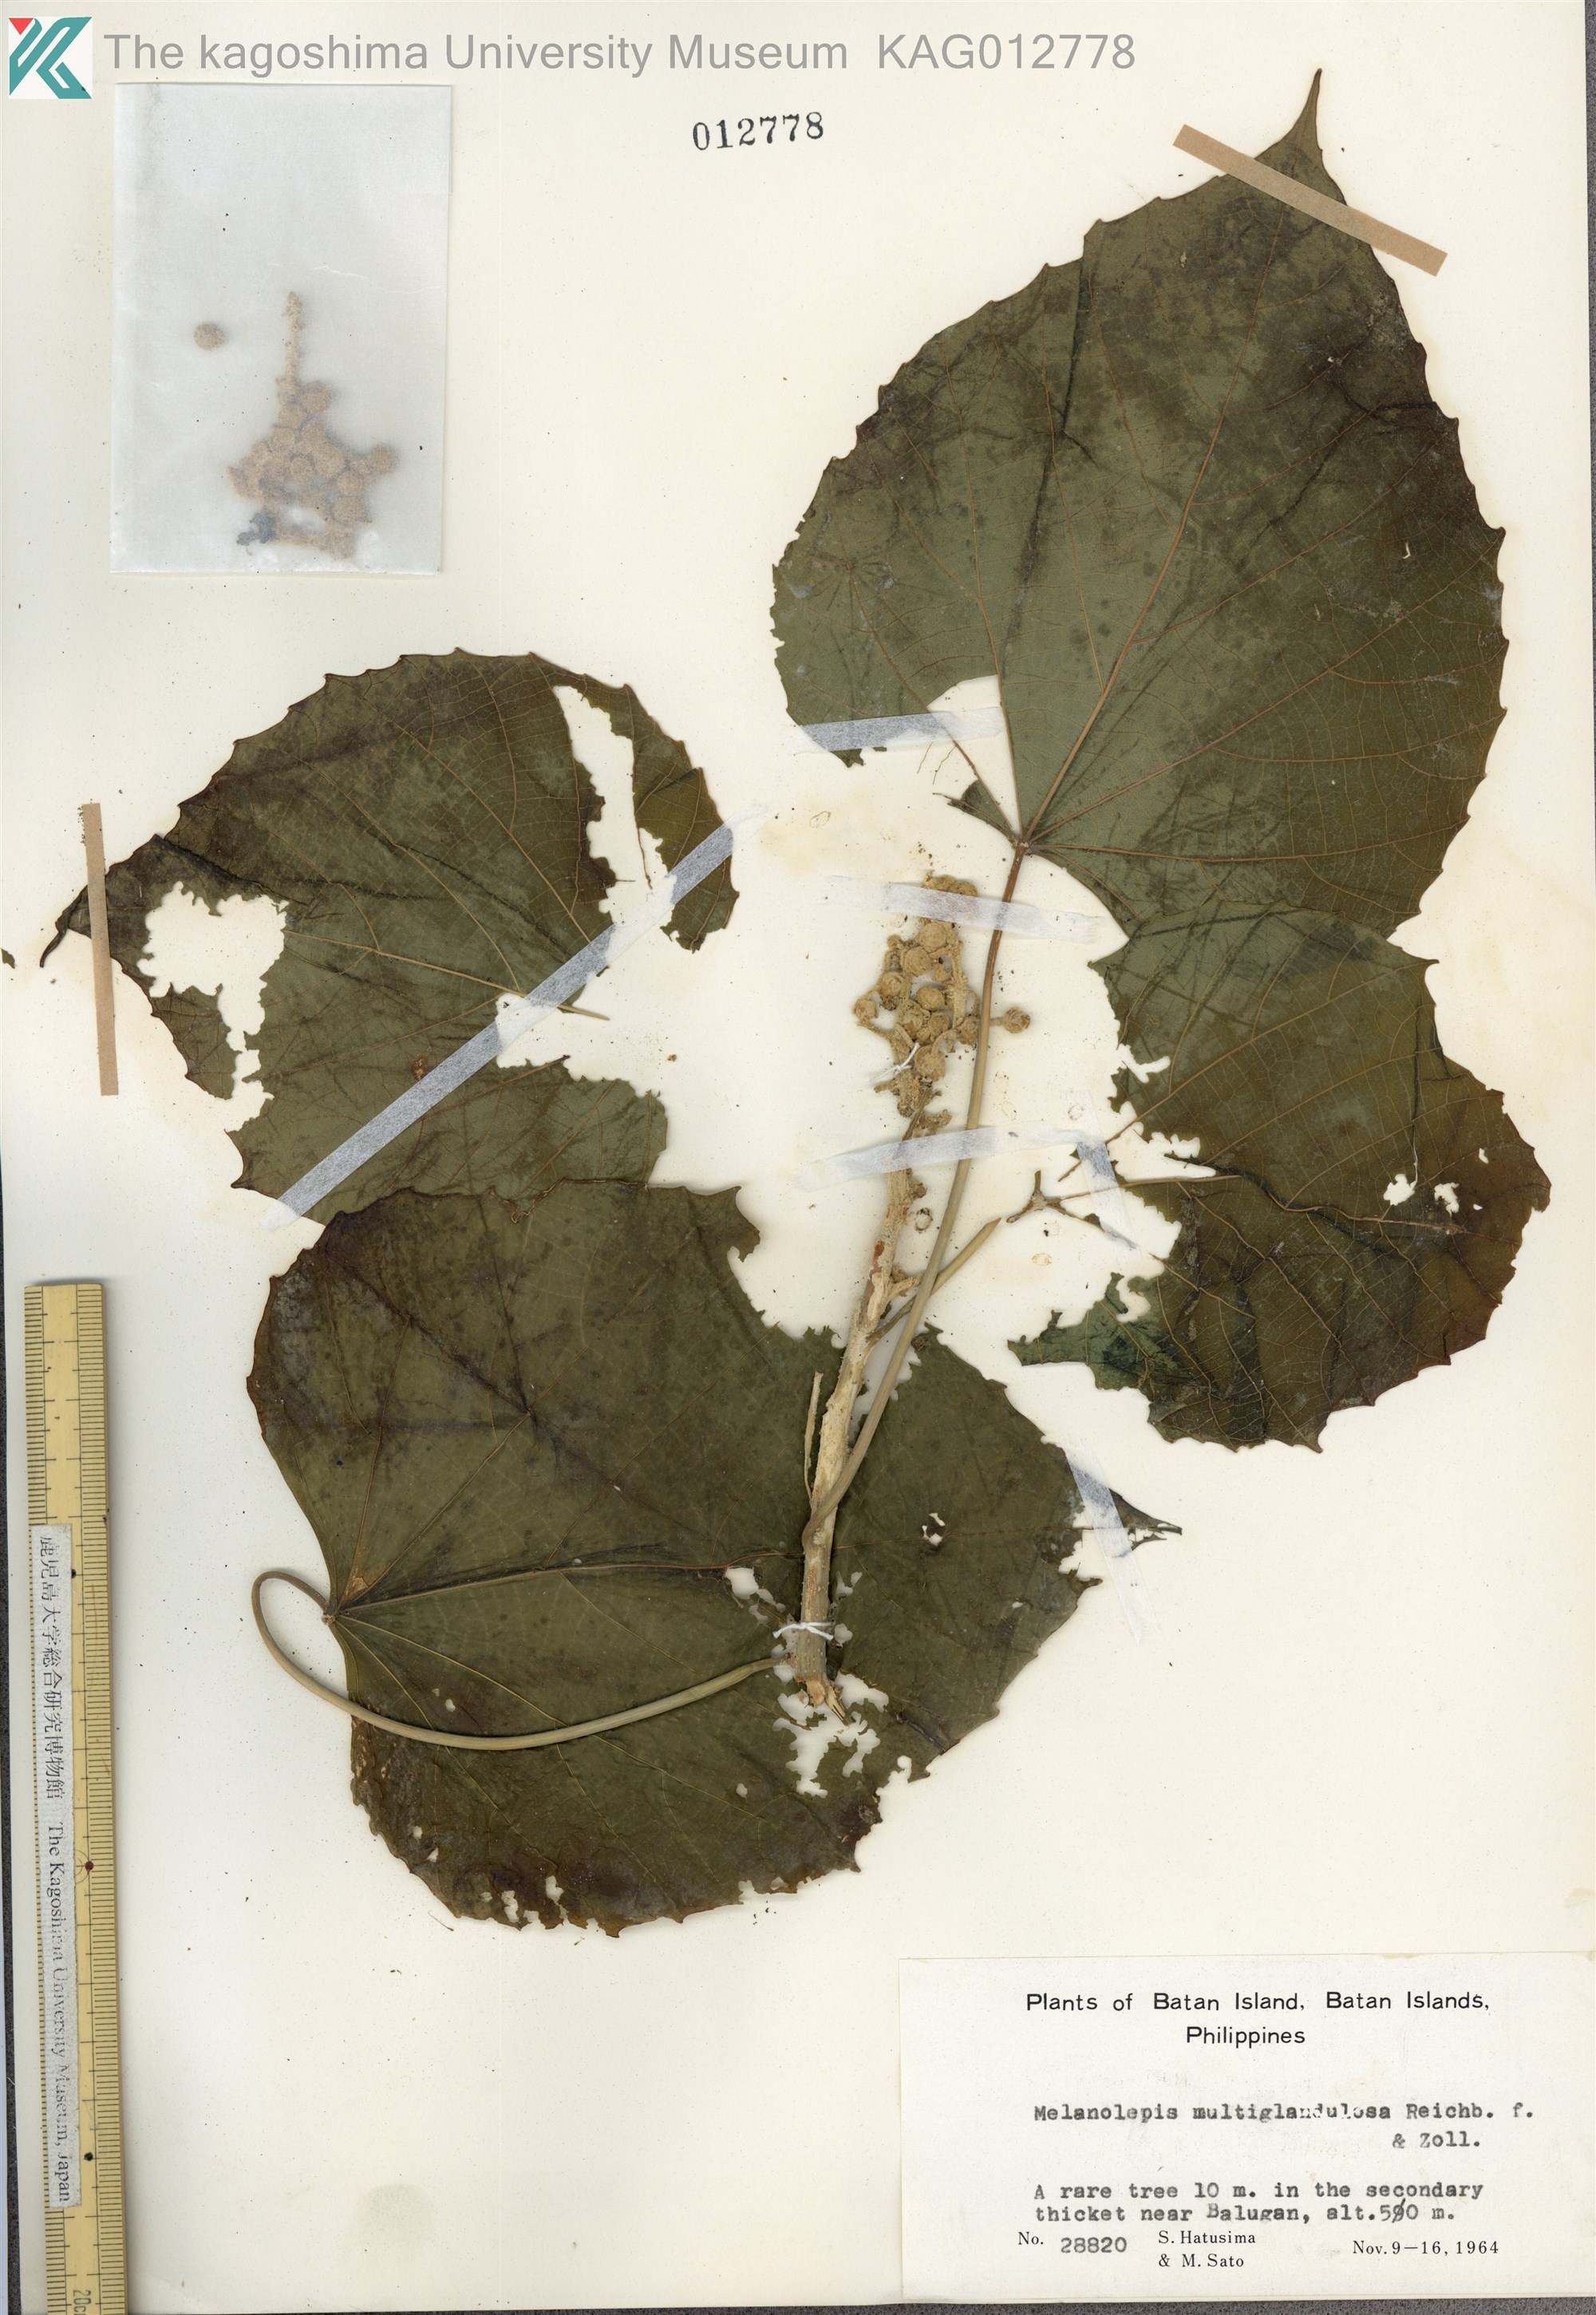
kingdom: Plantae
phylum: Tracheophyta
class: Magnoliopsida
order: Malpighiales
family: Euphorbiaceae
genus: Melanolepis
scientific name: Melanolepis multiglandulosa
